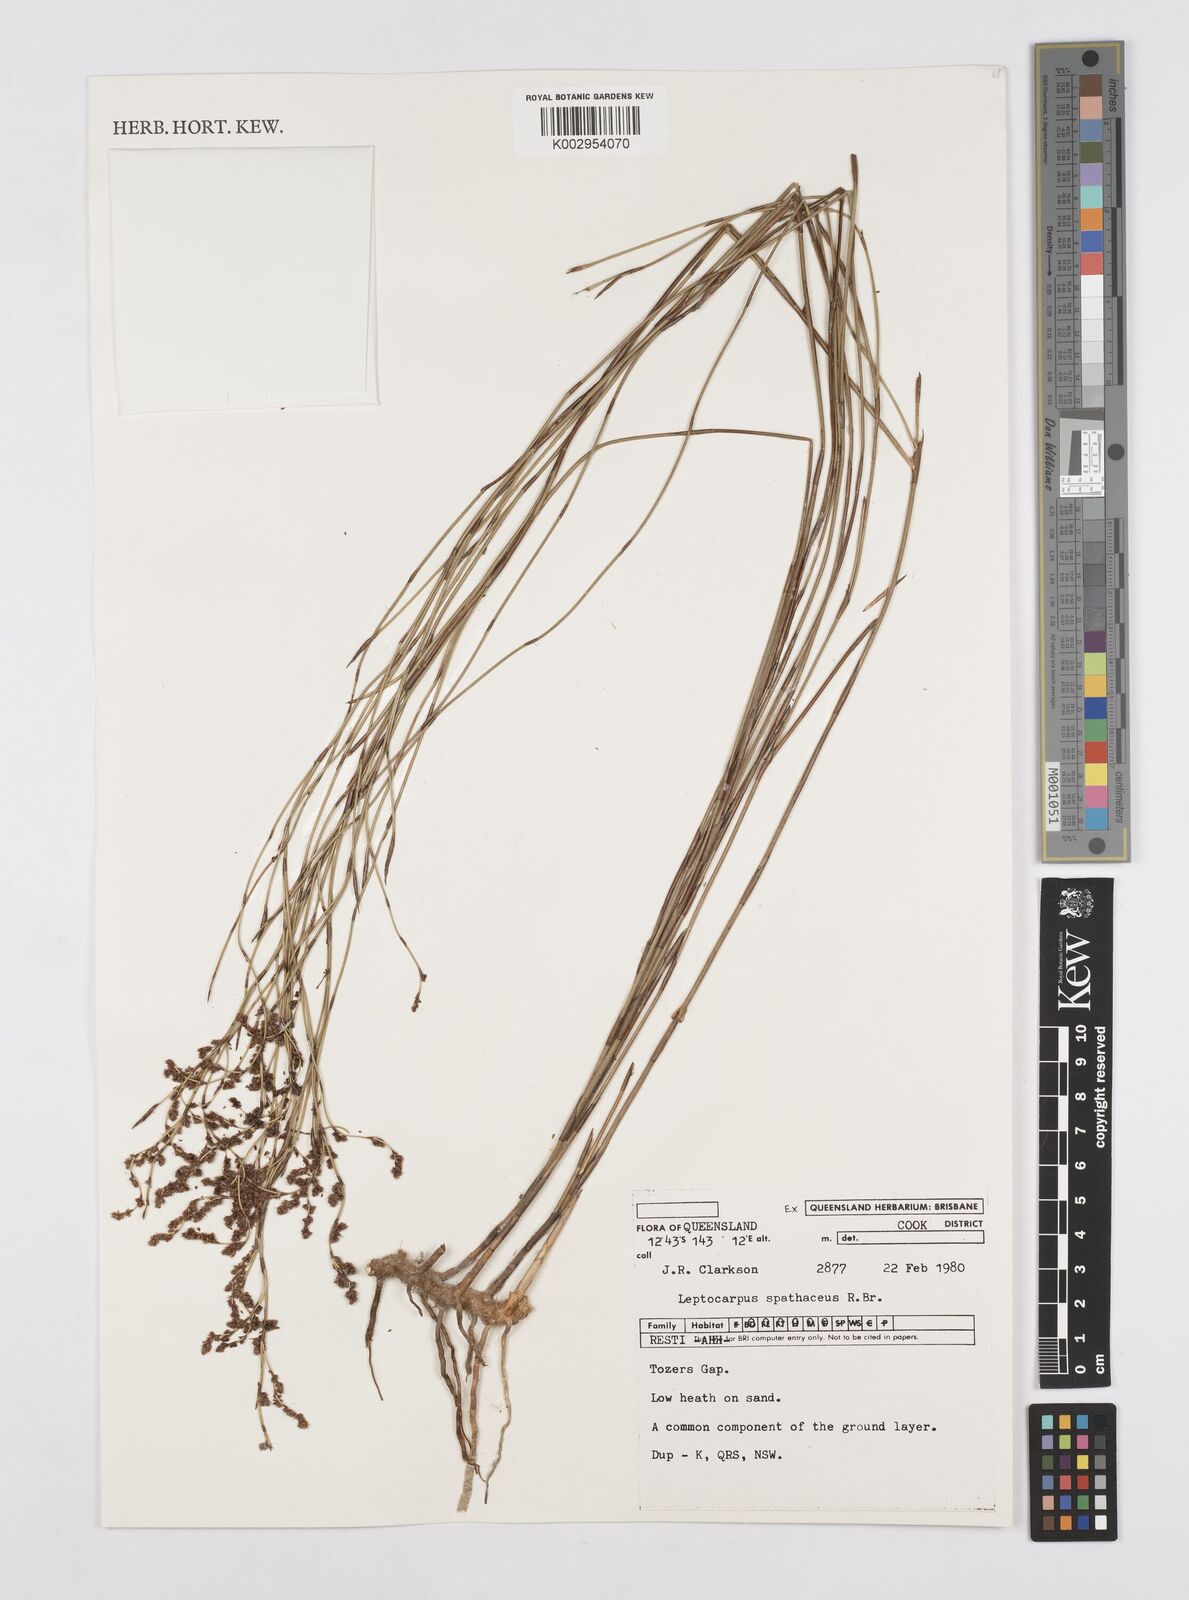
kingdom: Plantae
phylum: Tracheophyta
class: Liliopsida
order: Poales
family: Restionaceae
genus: Dapsilanthus
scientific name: Dapsilanthus spathaceus
